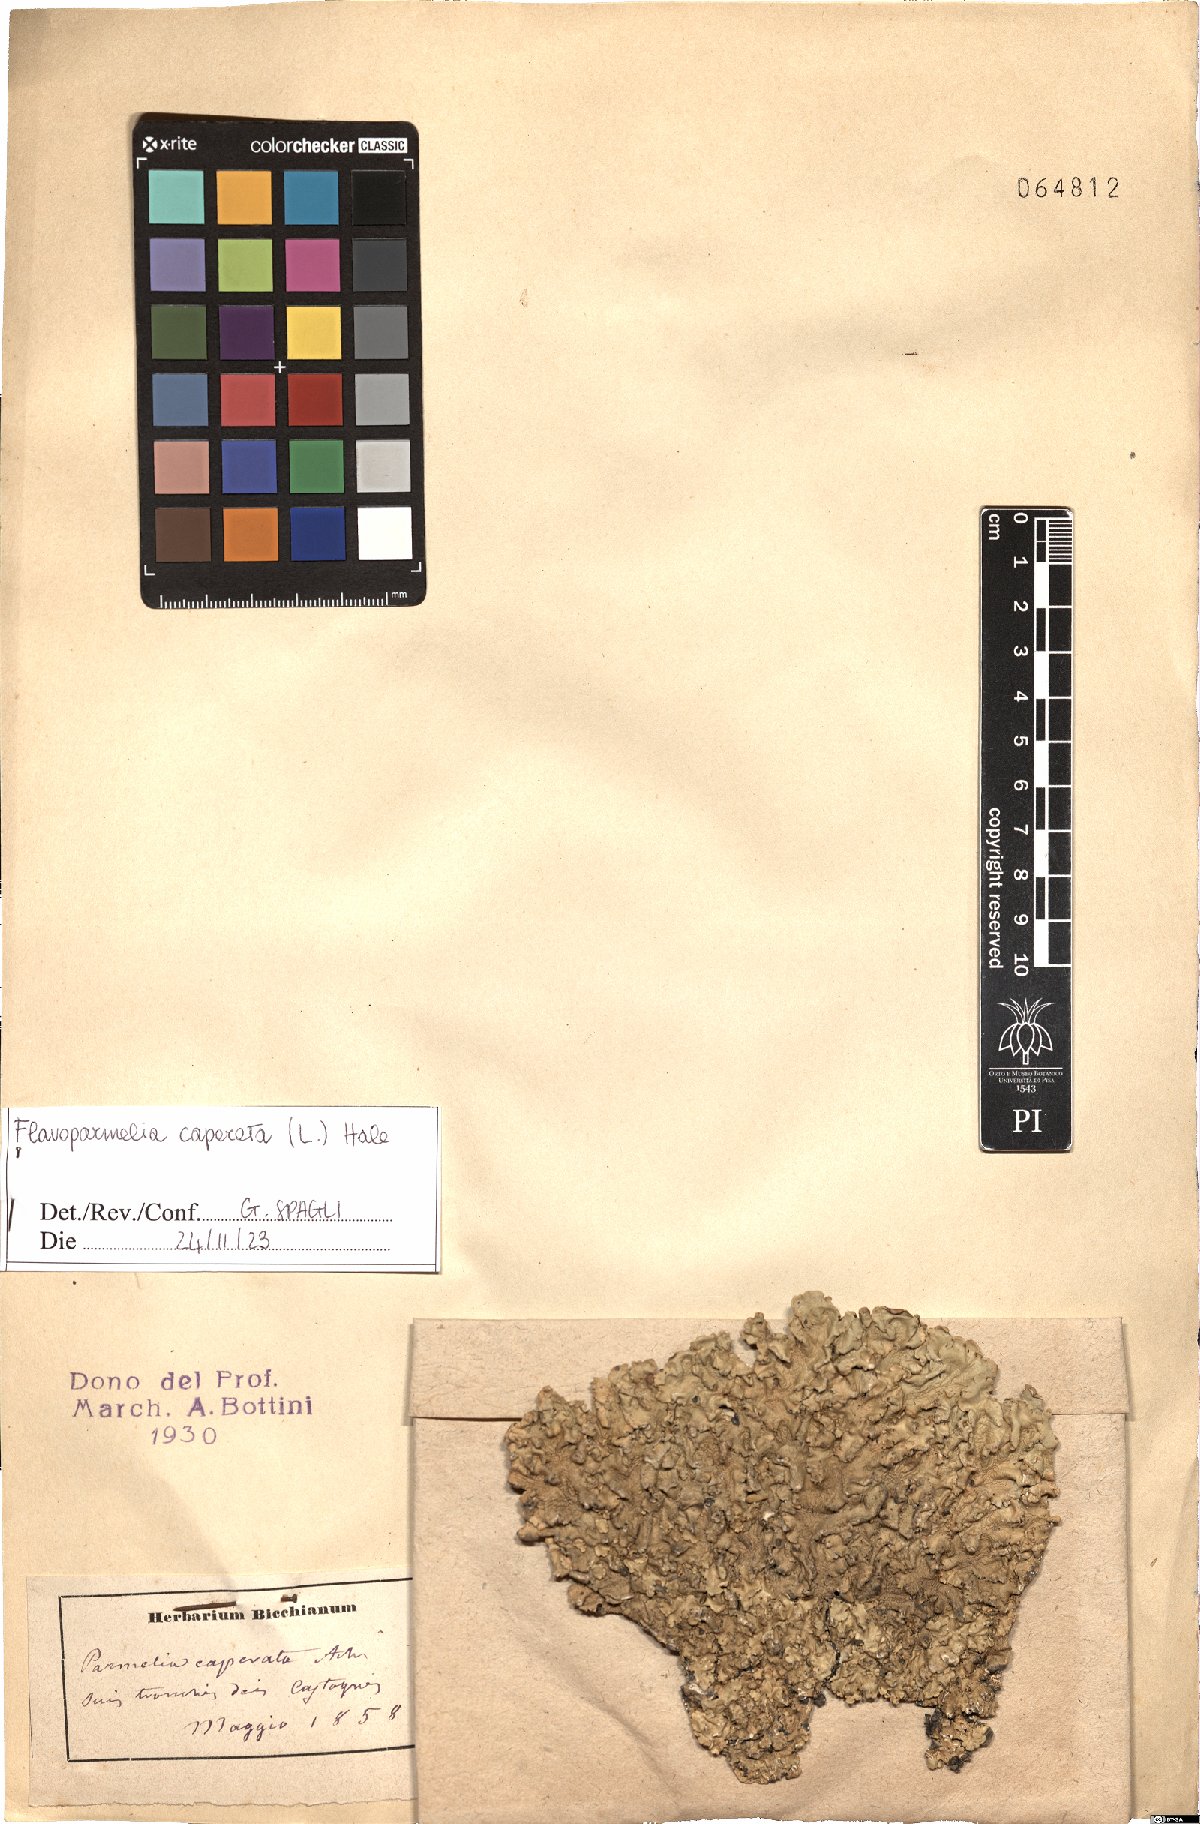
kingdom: Fungi
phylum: Ascomycota
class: Lecanoromycetes
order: Lecanorales
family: Parmeliaceae
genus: Flavoparmelia
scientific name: Flavoparmelia caperata
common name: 40-mile per hour lichen
